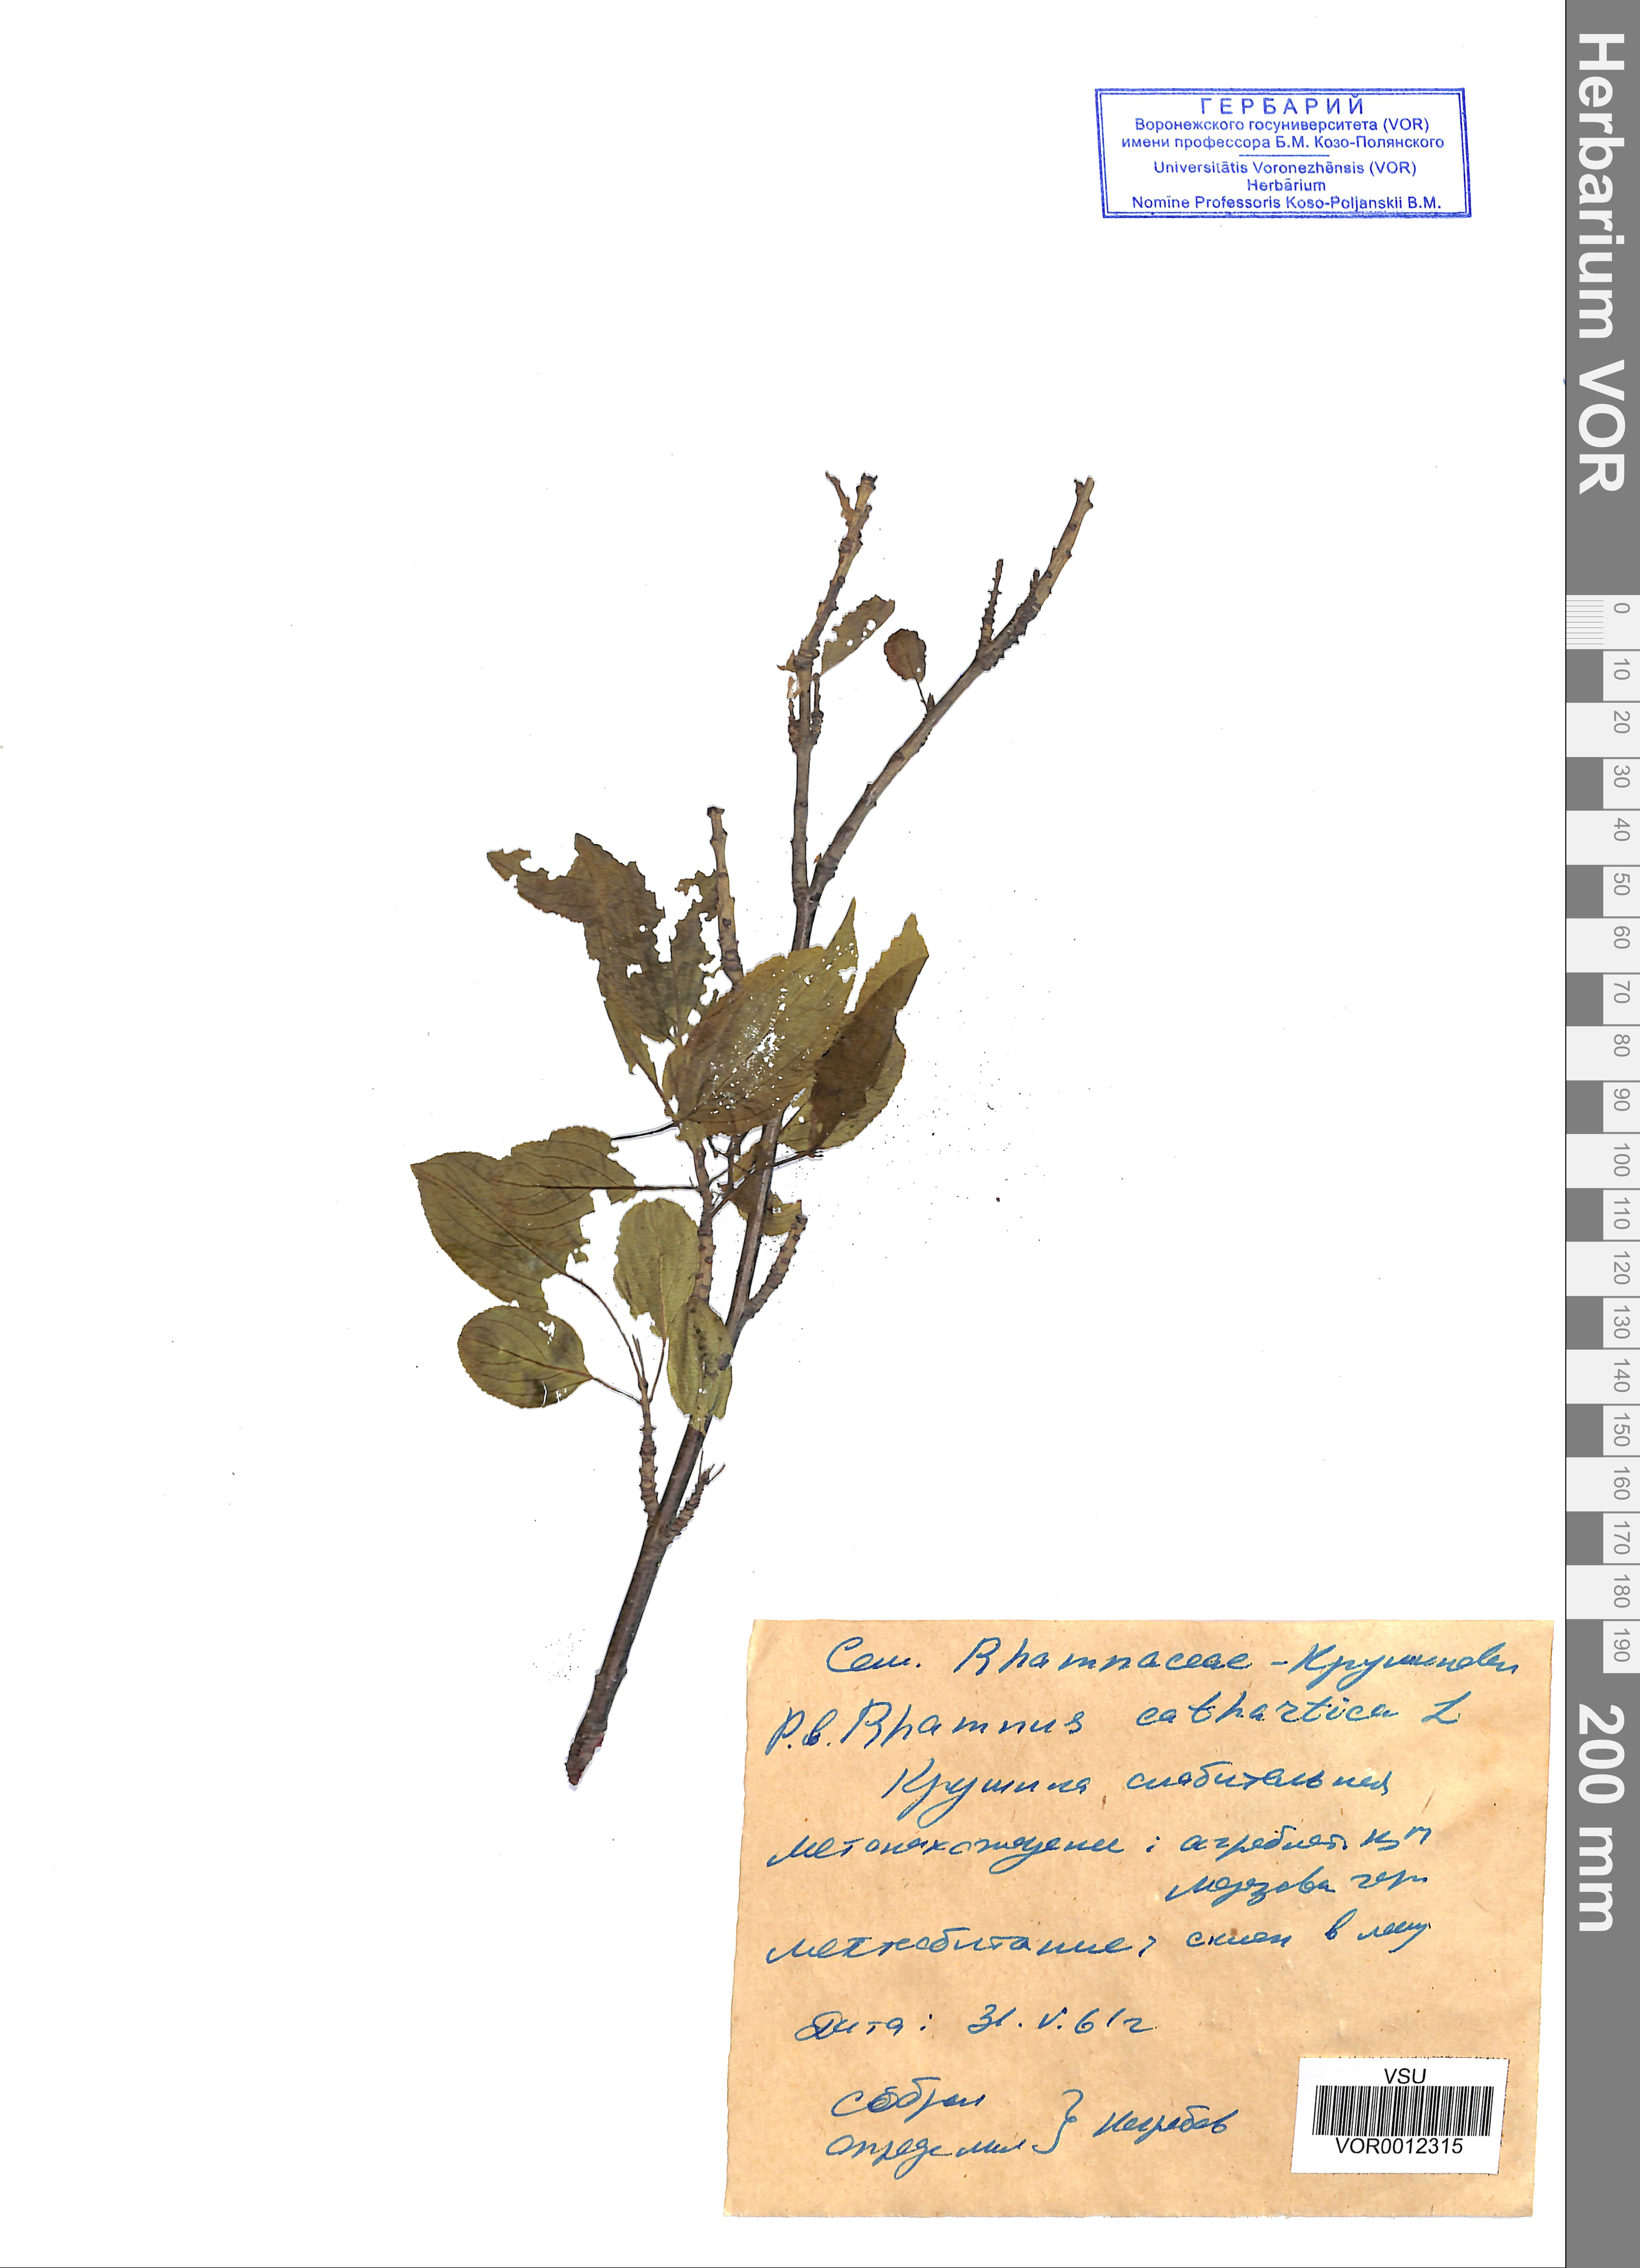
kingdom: Plantae
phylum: Tracheophyta
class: Magnoliopsida
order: Rosales
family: Rhamnaceae
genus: Rhamnus
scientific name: Rhamnus cathartica
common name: Common buckthorn
